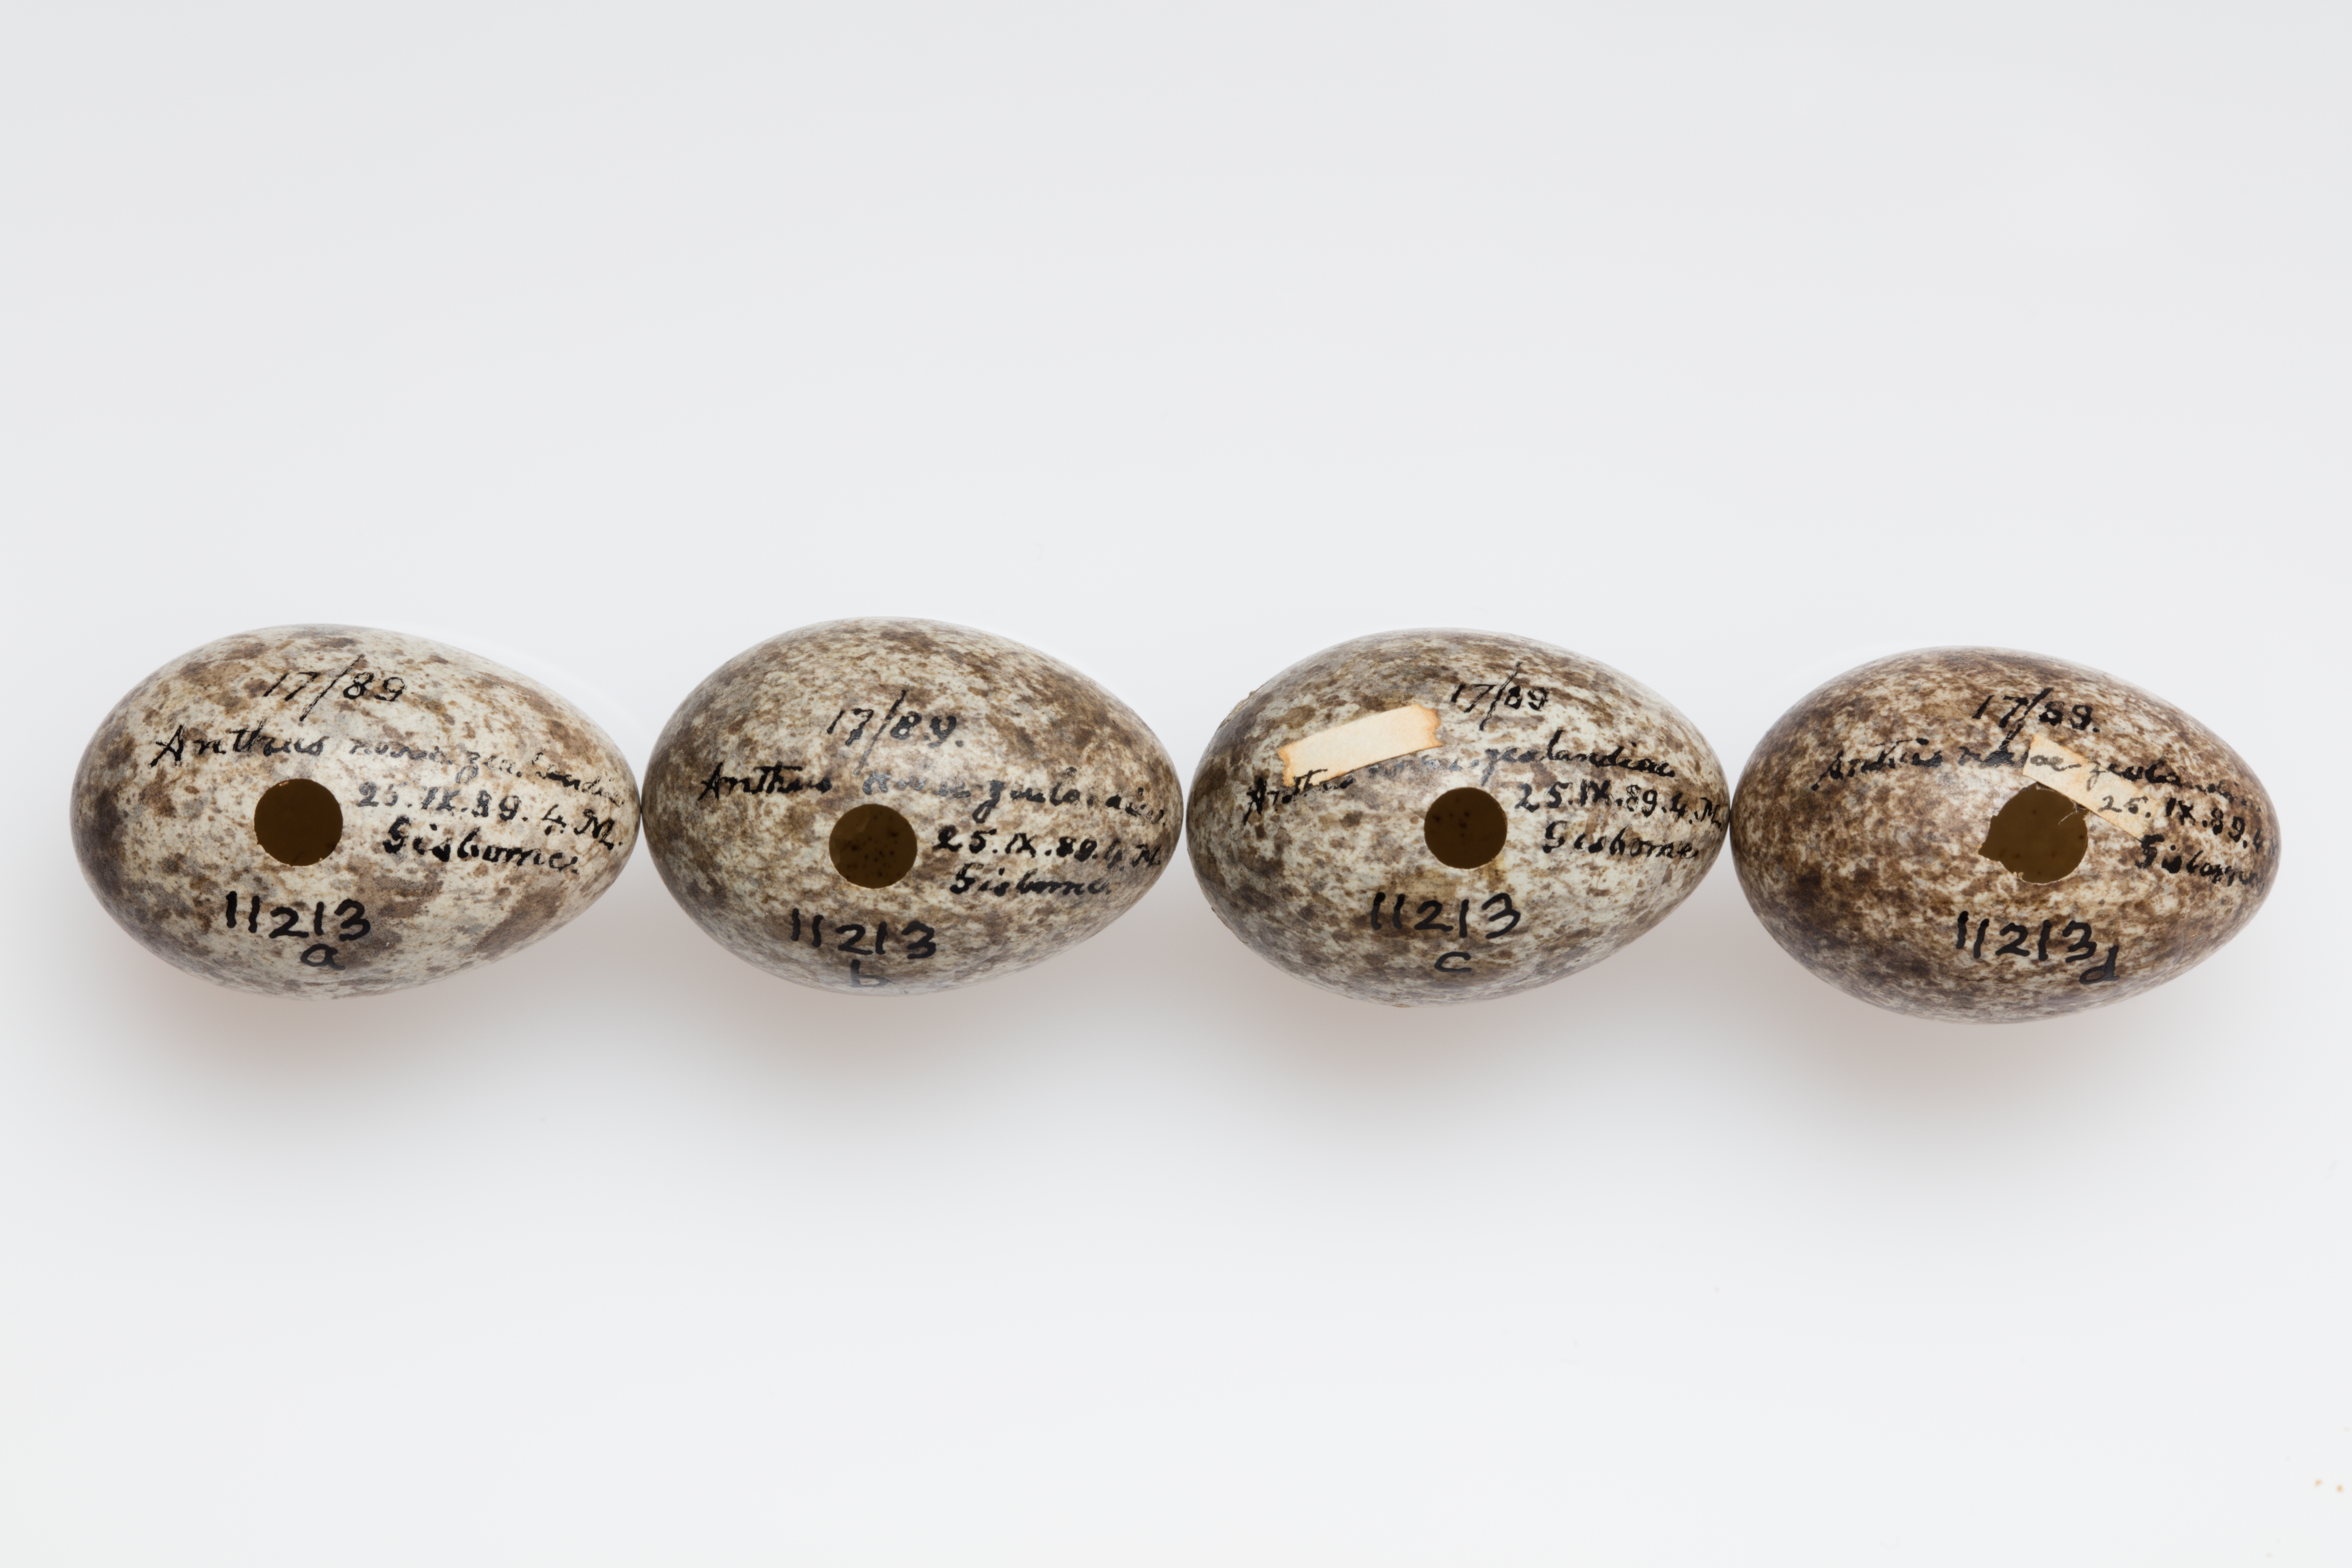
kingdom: Animalia
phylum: Chordata
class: Aves
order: Passeriformes
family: Motacillidae
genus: Anthus
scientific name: Anthus novaeseelandiae
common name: New zealand pipit
